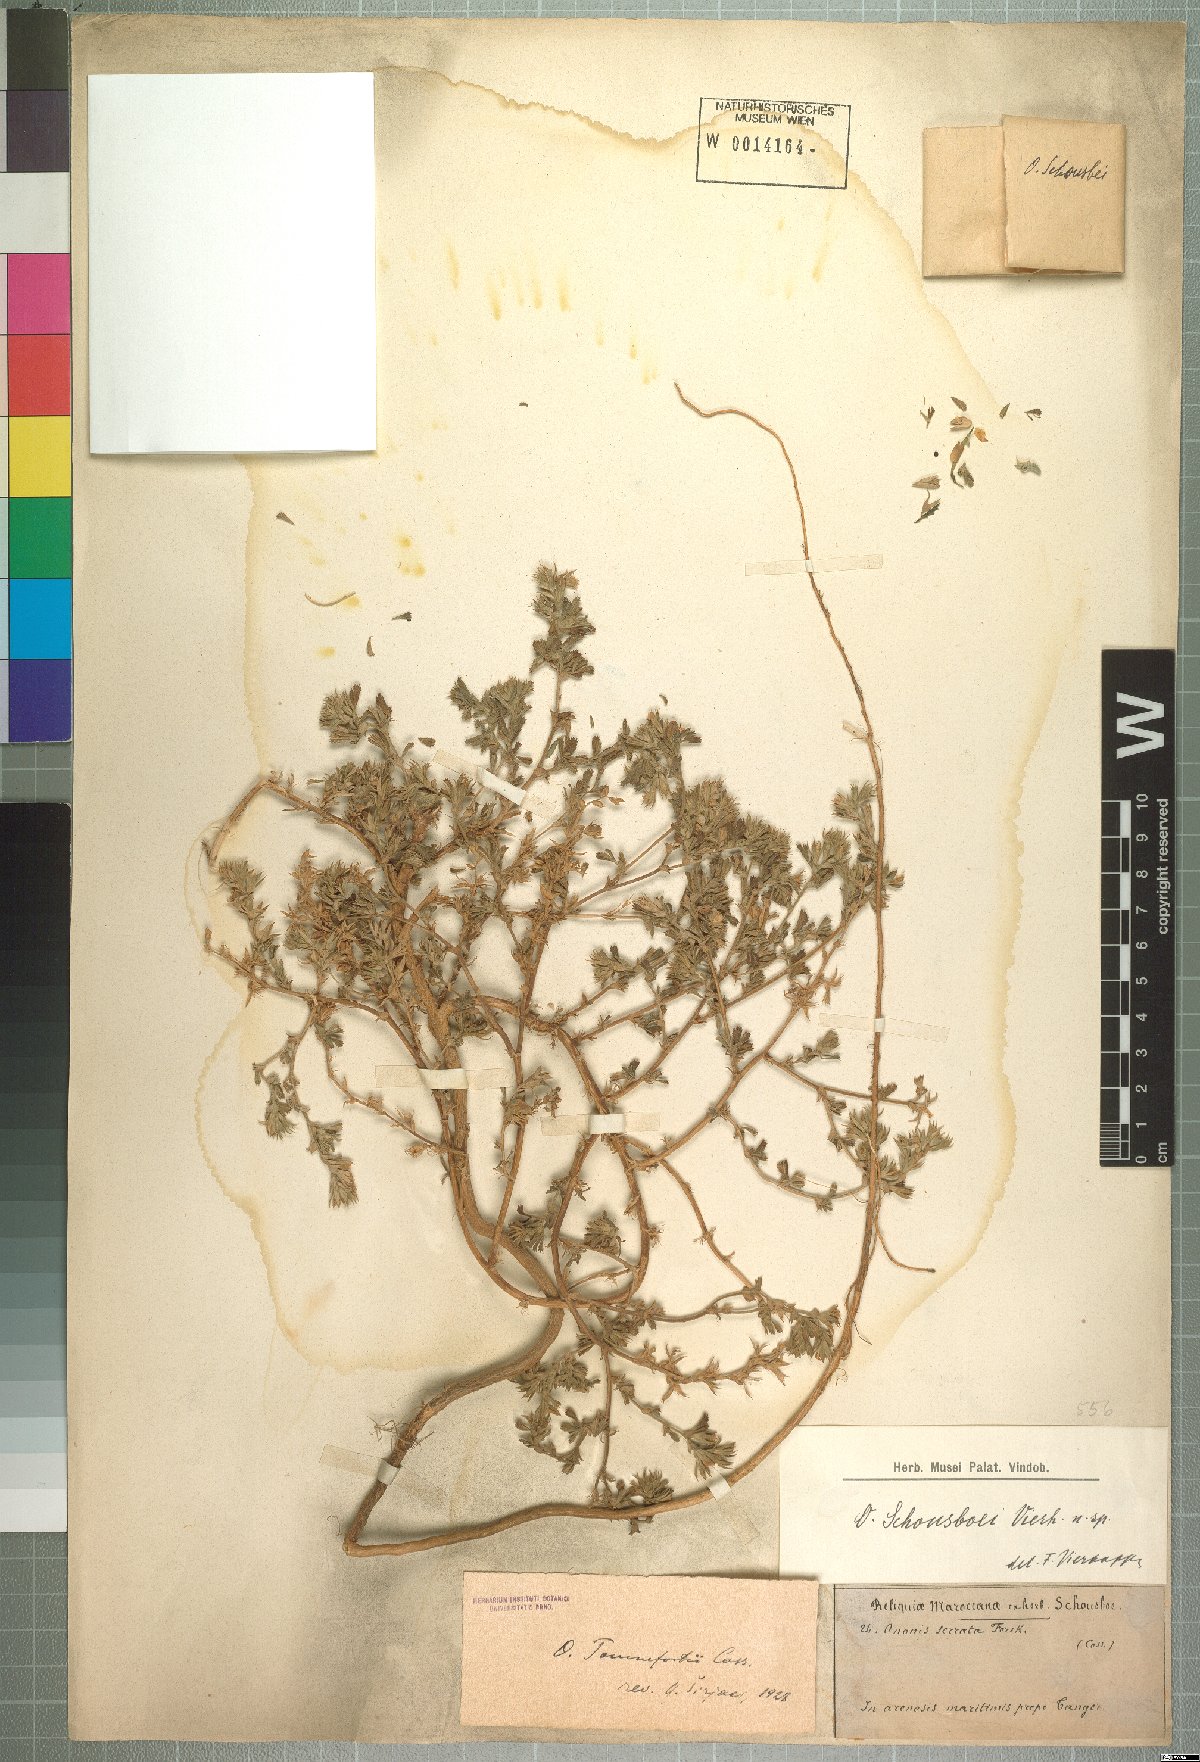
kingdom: Plantae
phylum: Tracheophyta
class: Magnoliopsida
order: Fabales
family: Fabaceae
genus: Ononis
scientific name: Ononis tournefortii
